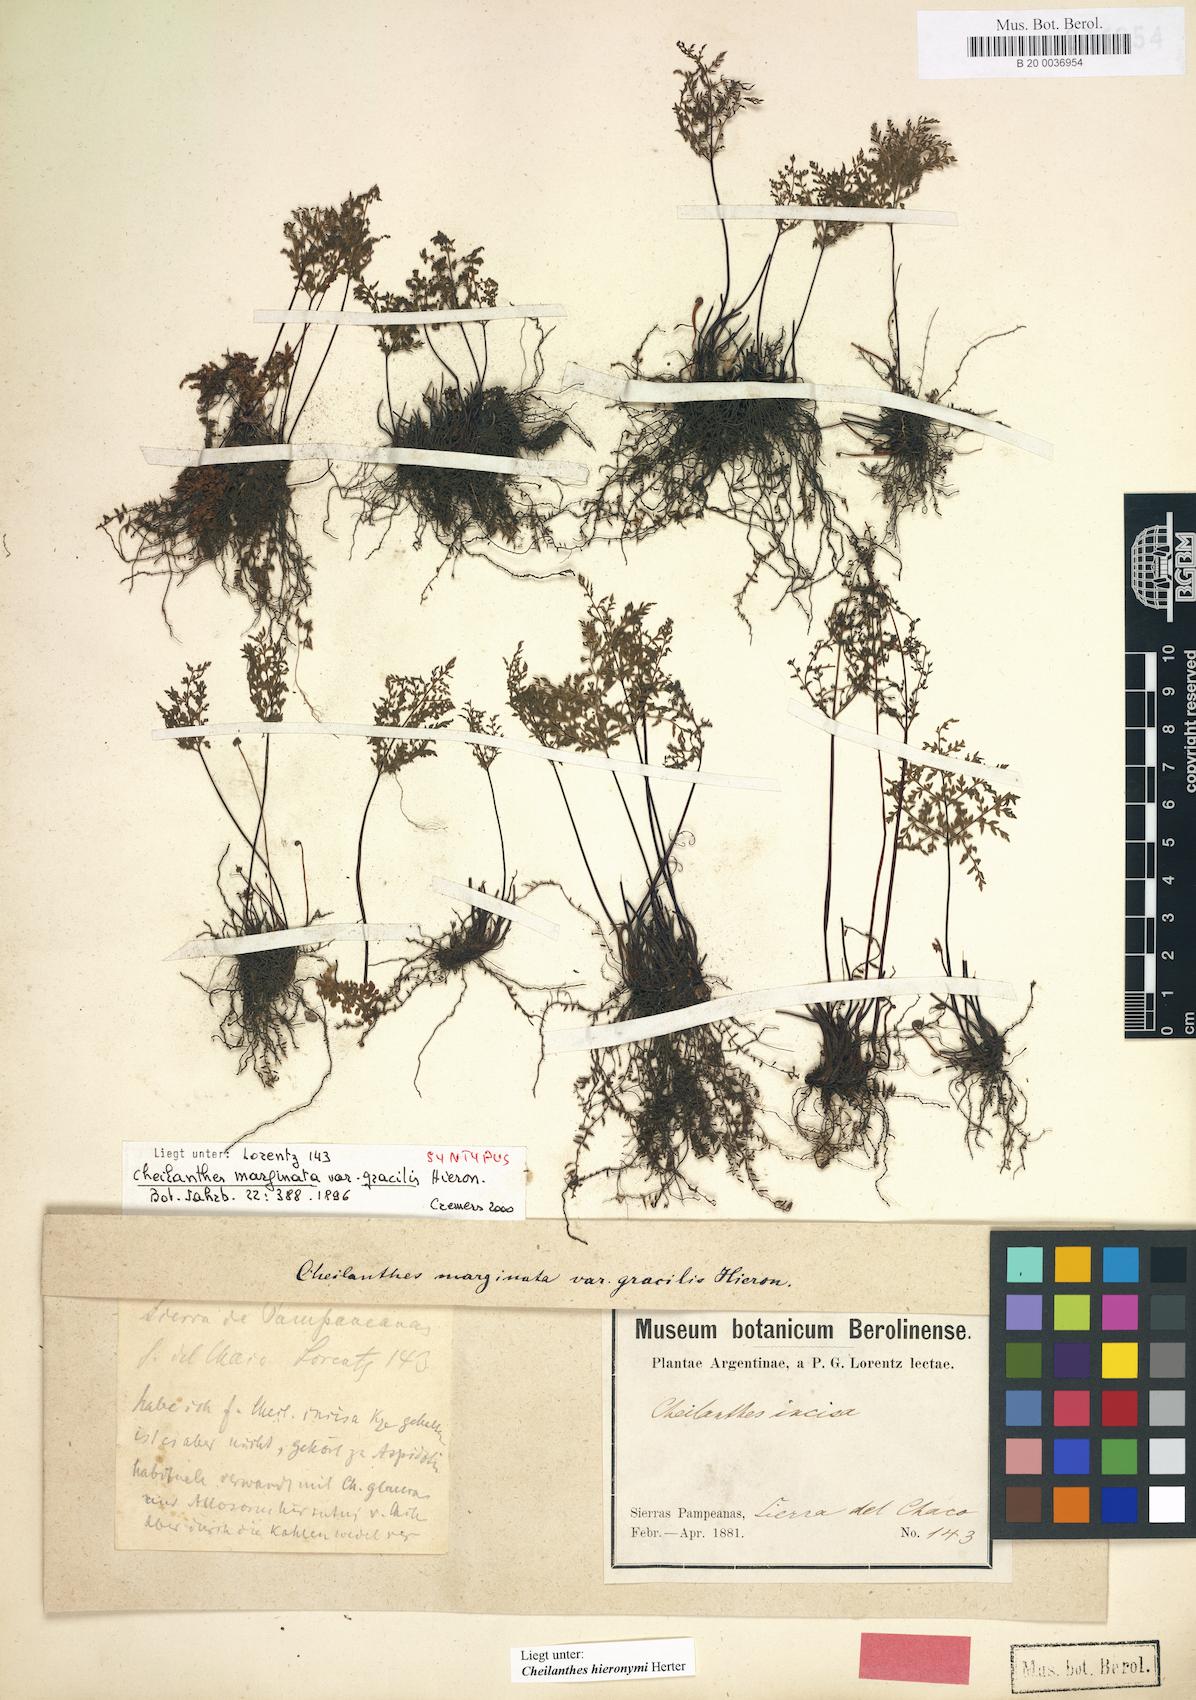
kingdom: Plantae
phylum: Tracheophyta
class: Polypodiopsida
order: Polypodiales
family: Pteridaceae
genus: Cheilanthes
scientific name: Cheilanthes hieronymi
